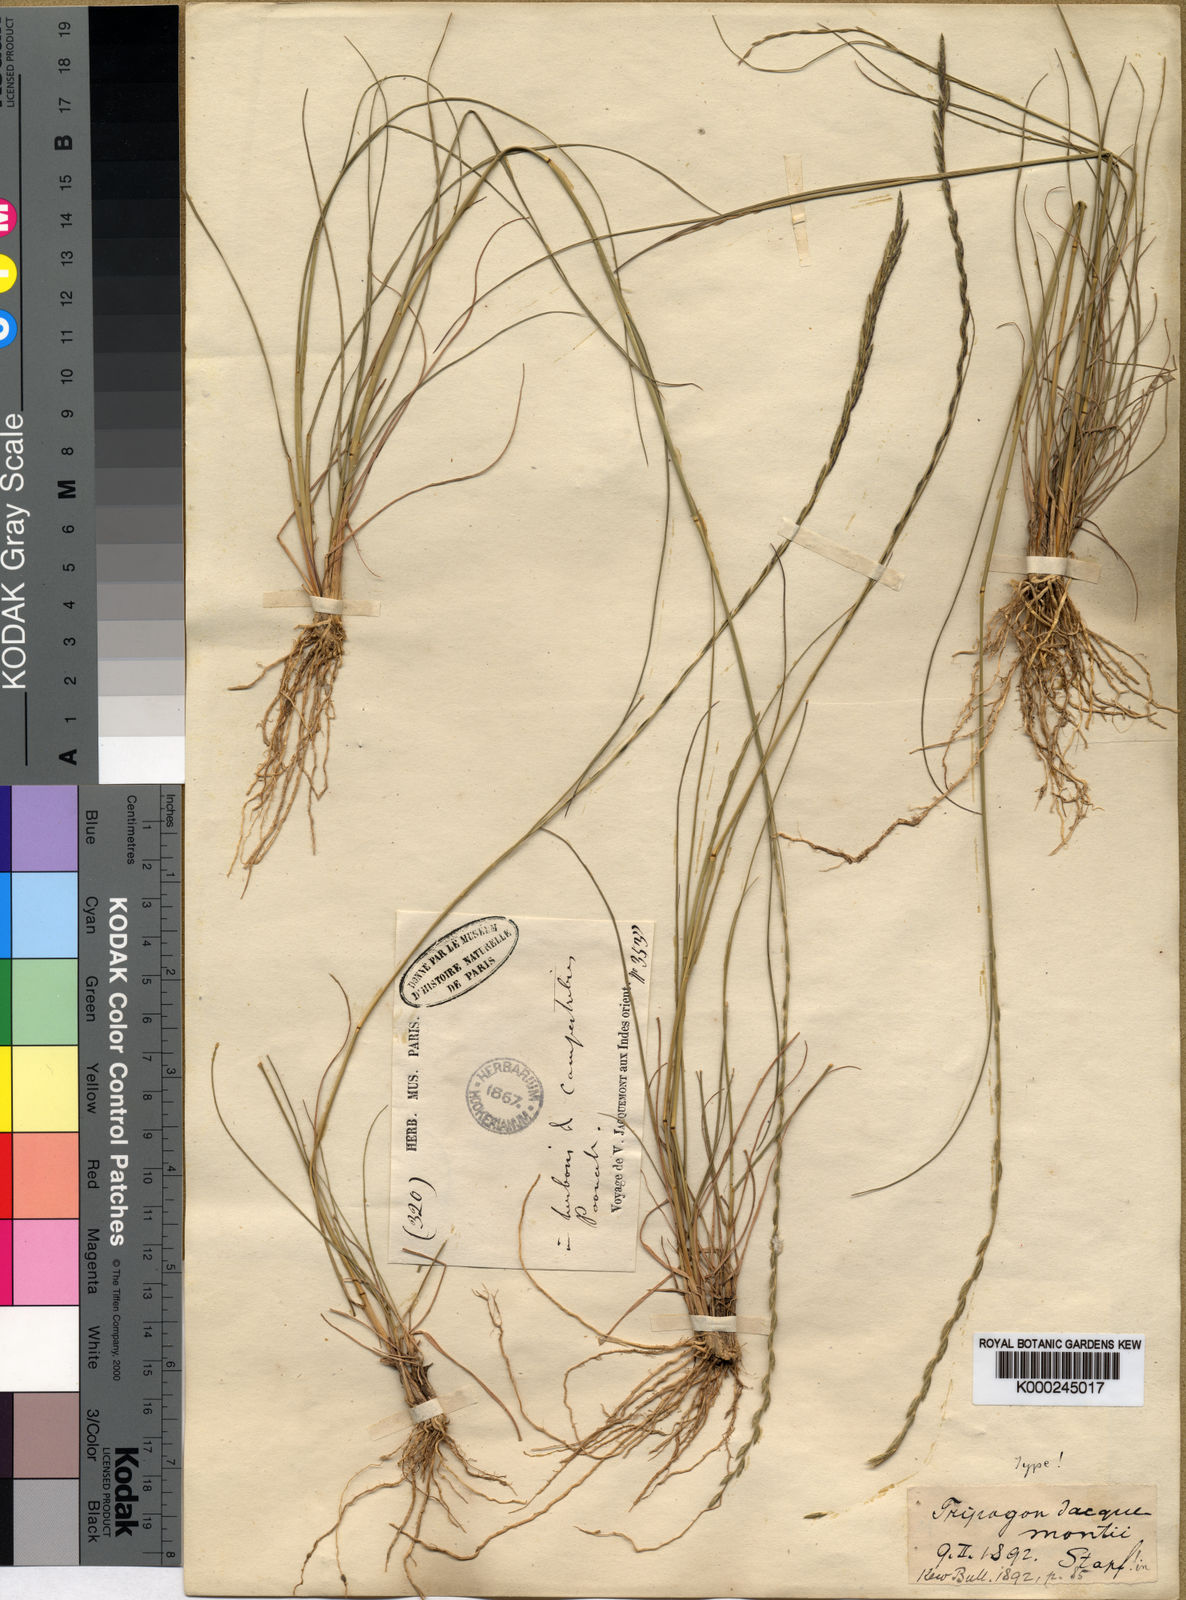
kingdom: Plantae
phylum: Tracheophyta
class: Liliopsida
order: Poales
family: Poaceae
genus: Tripogon
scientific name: Tripogon jacquemontii
